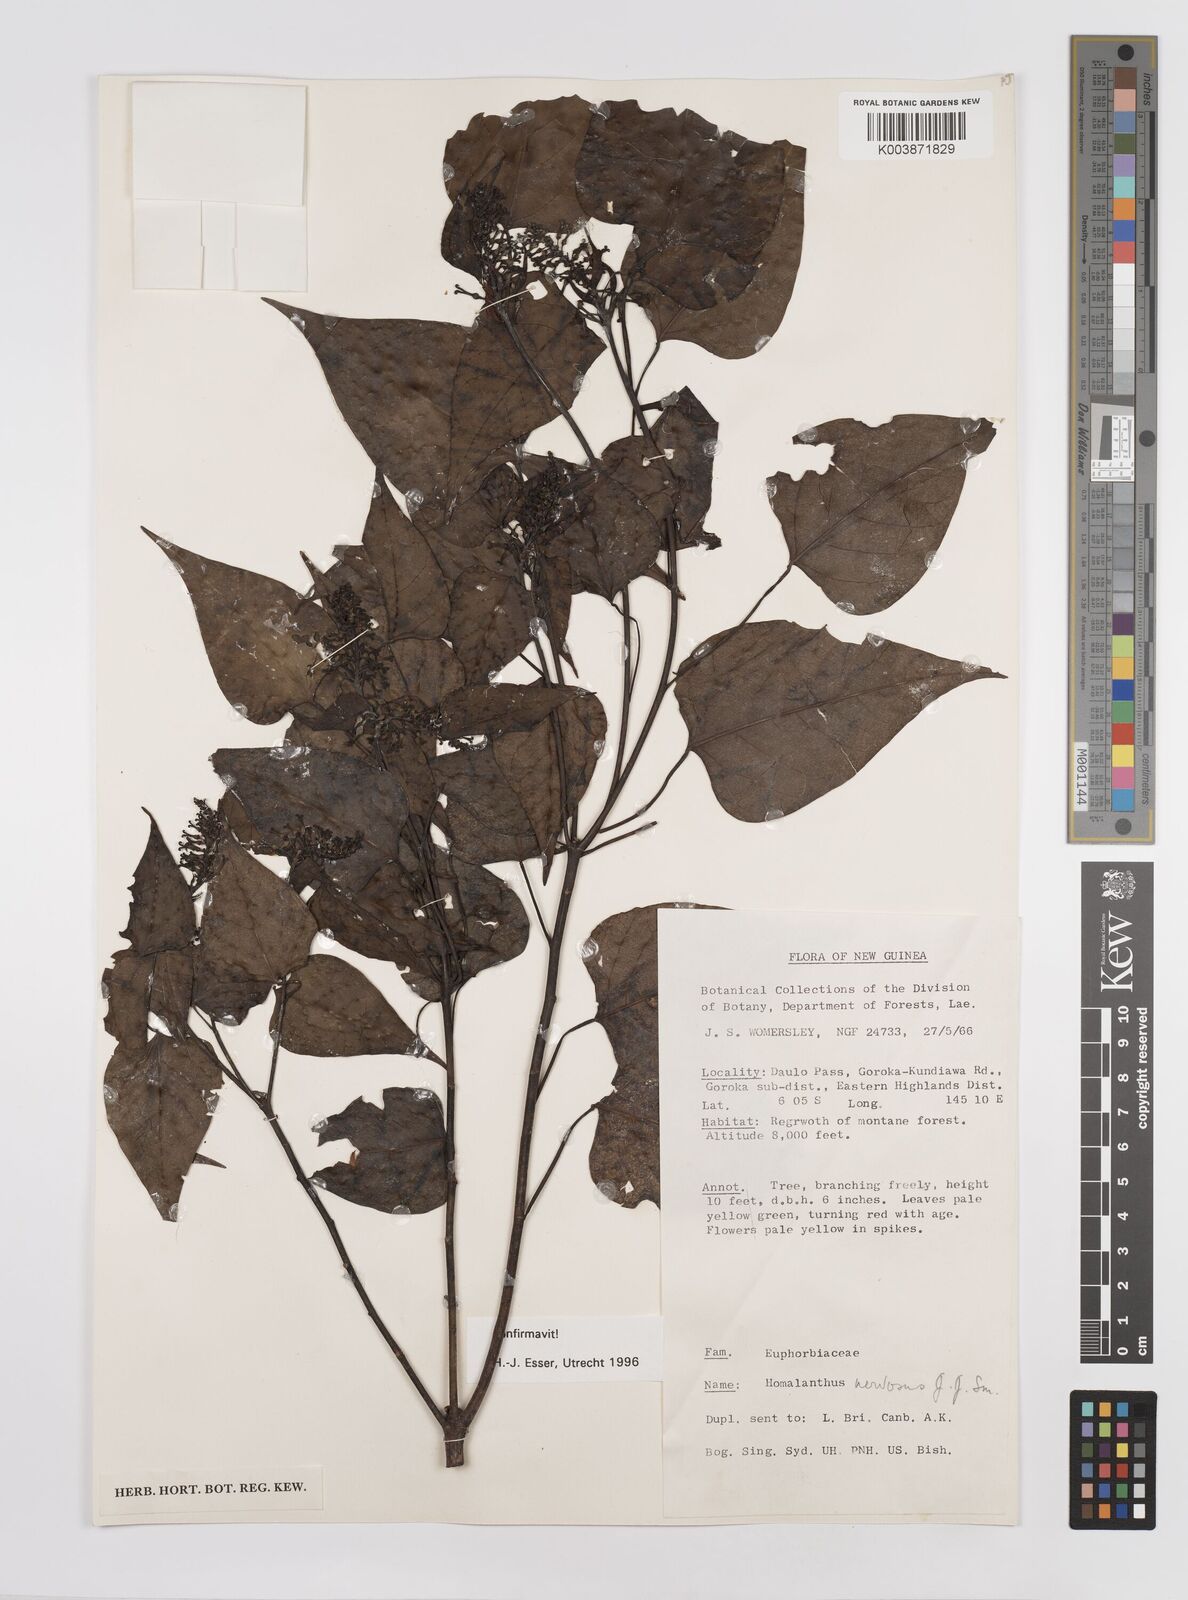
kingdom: Plantae
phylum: Tracheophyta
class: Magnoliopsida
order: Malpighiales
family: Euphorbiaceae
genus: Homalanthus
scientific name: Homalanthus nervosus
